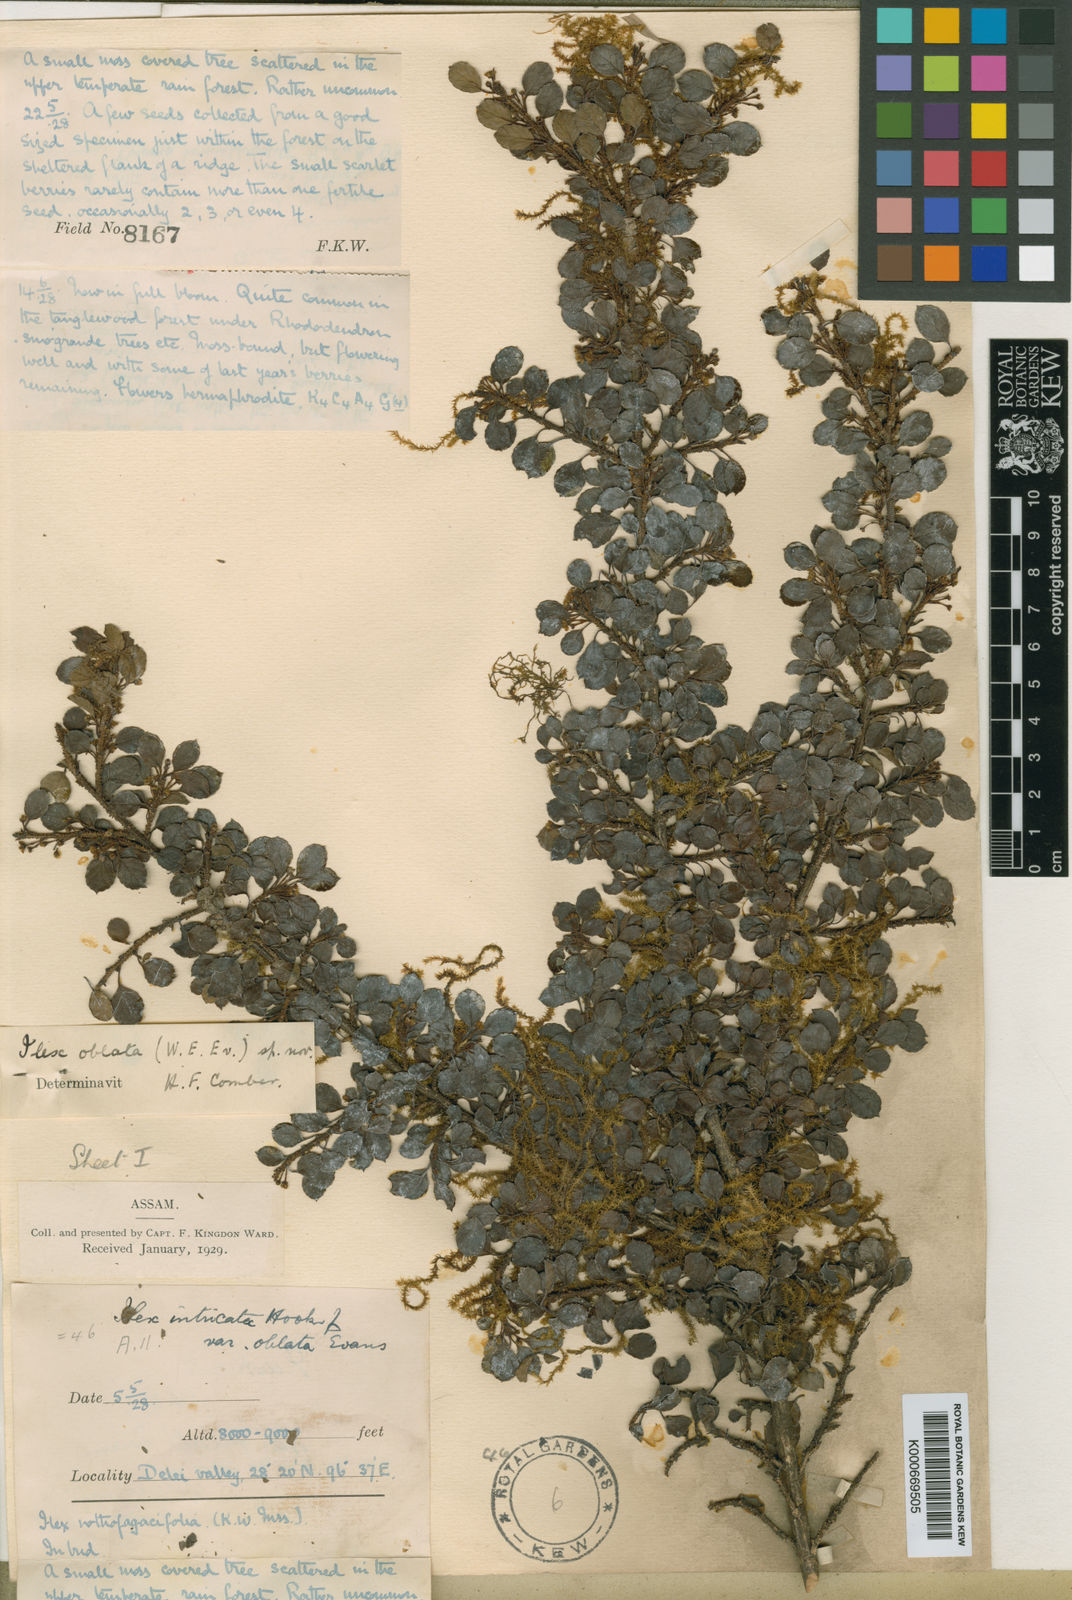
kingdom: Plantae
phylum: Tracheophyta
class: Magnoliopsida
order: Aquifoliales
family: Aquifoliaceae
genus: Ilex
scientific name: Ilex nothofagifolia
